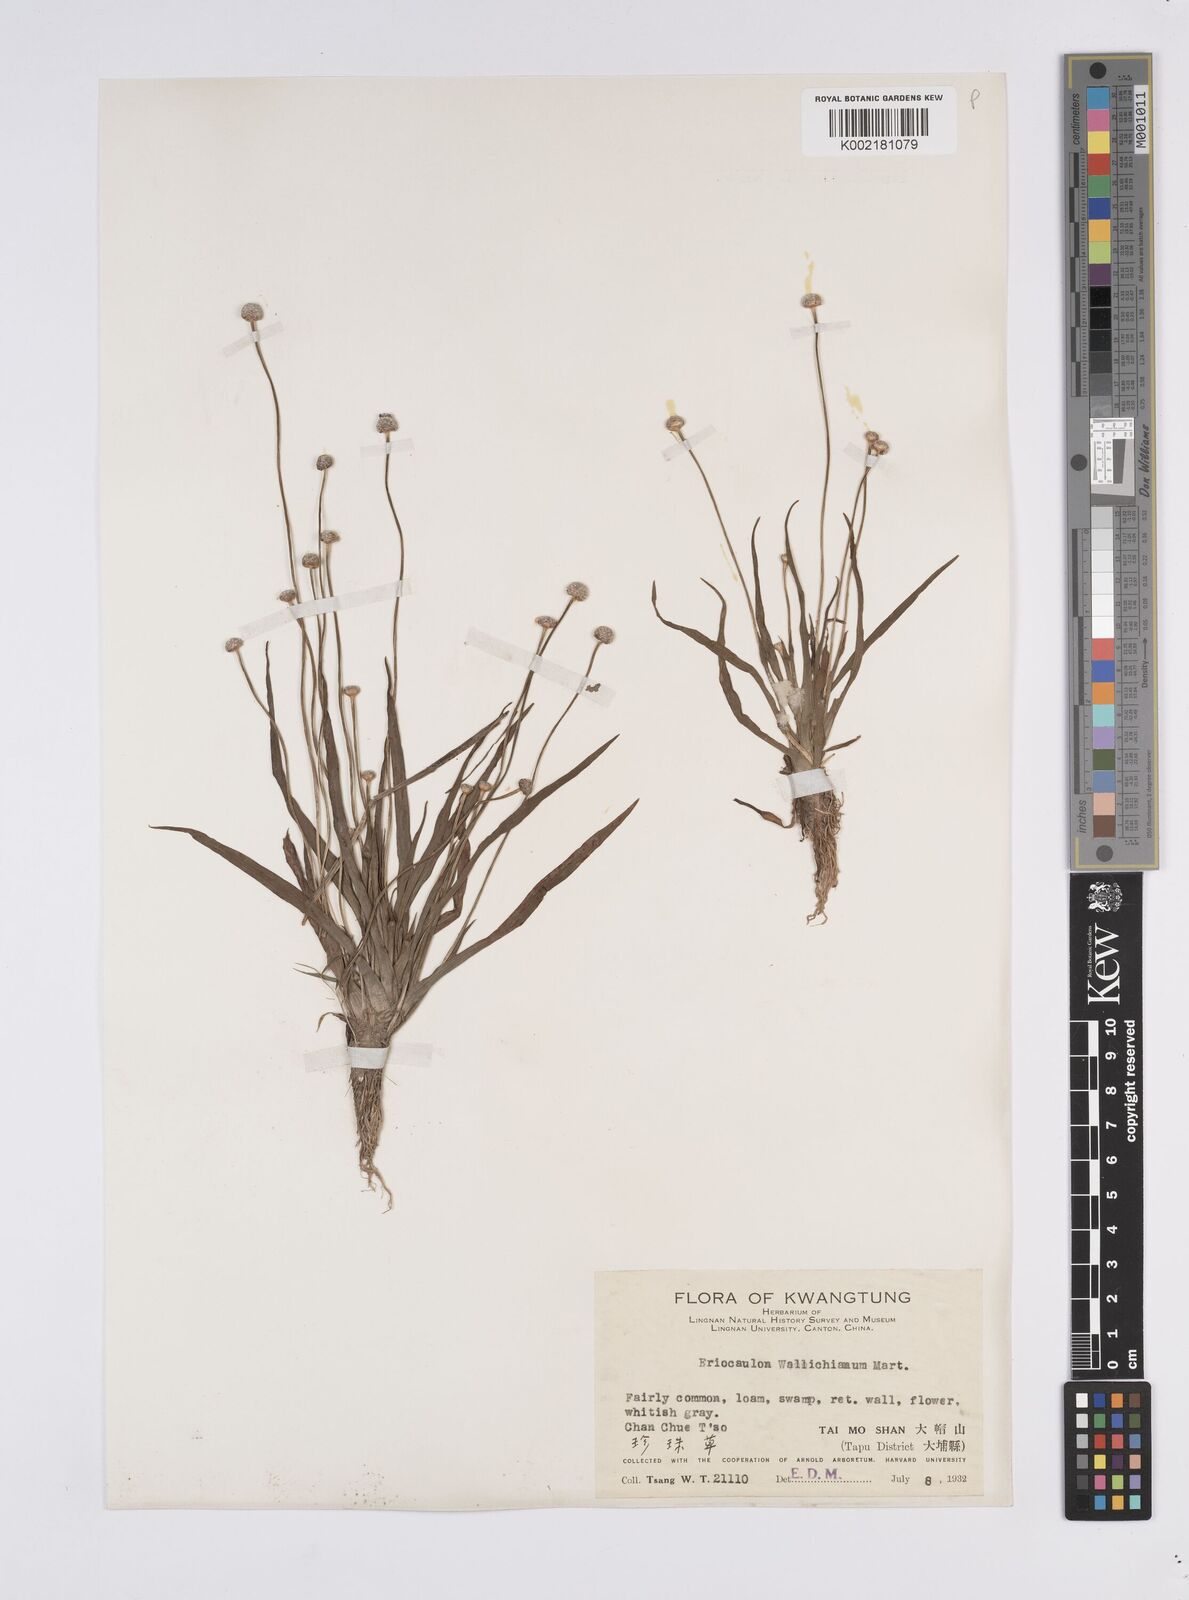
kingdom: Plantae
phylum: Tracheophyta
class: Liliopsida
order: Poales
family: Eriocaulaceae
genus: Eriocaulon
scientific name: Eriocaulon sexangulare
